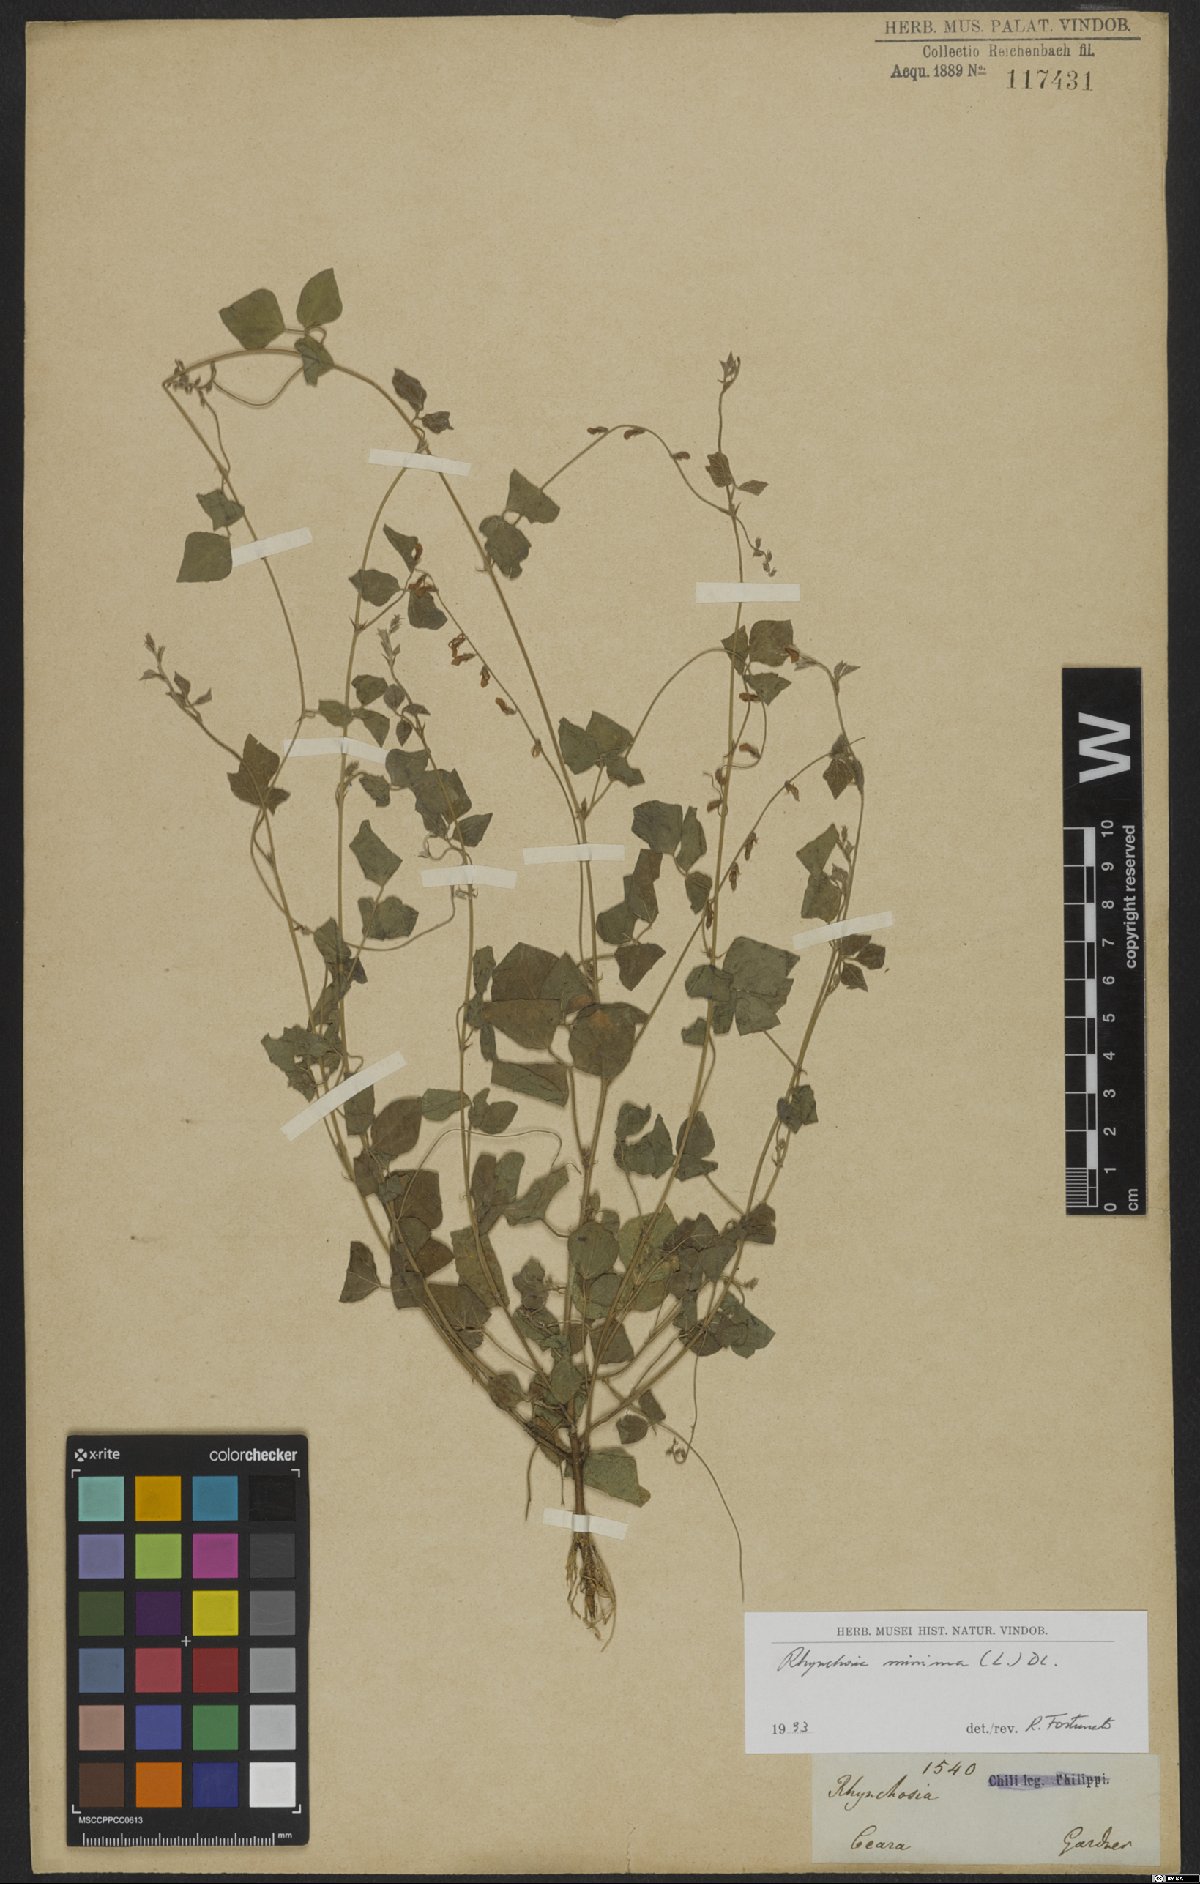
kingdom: Plantae
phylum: Tracheophyta
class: Magnoliopsida
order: Fabales
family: Fabaceae
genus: Rhynchosia
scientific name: Rhynchosia minima
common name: Least snoutbean
